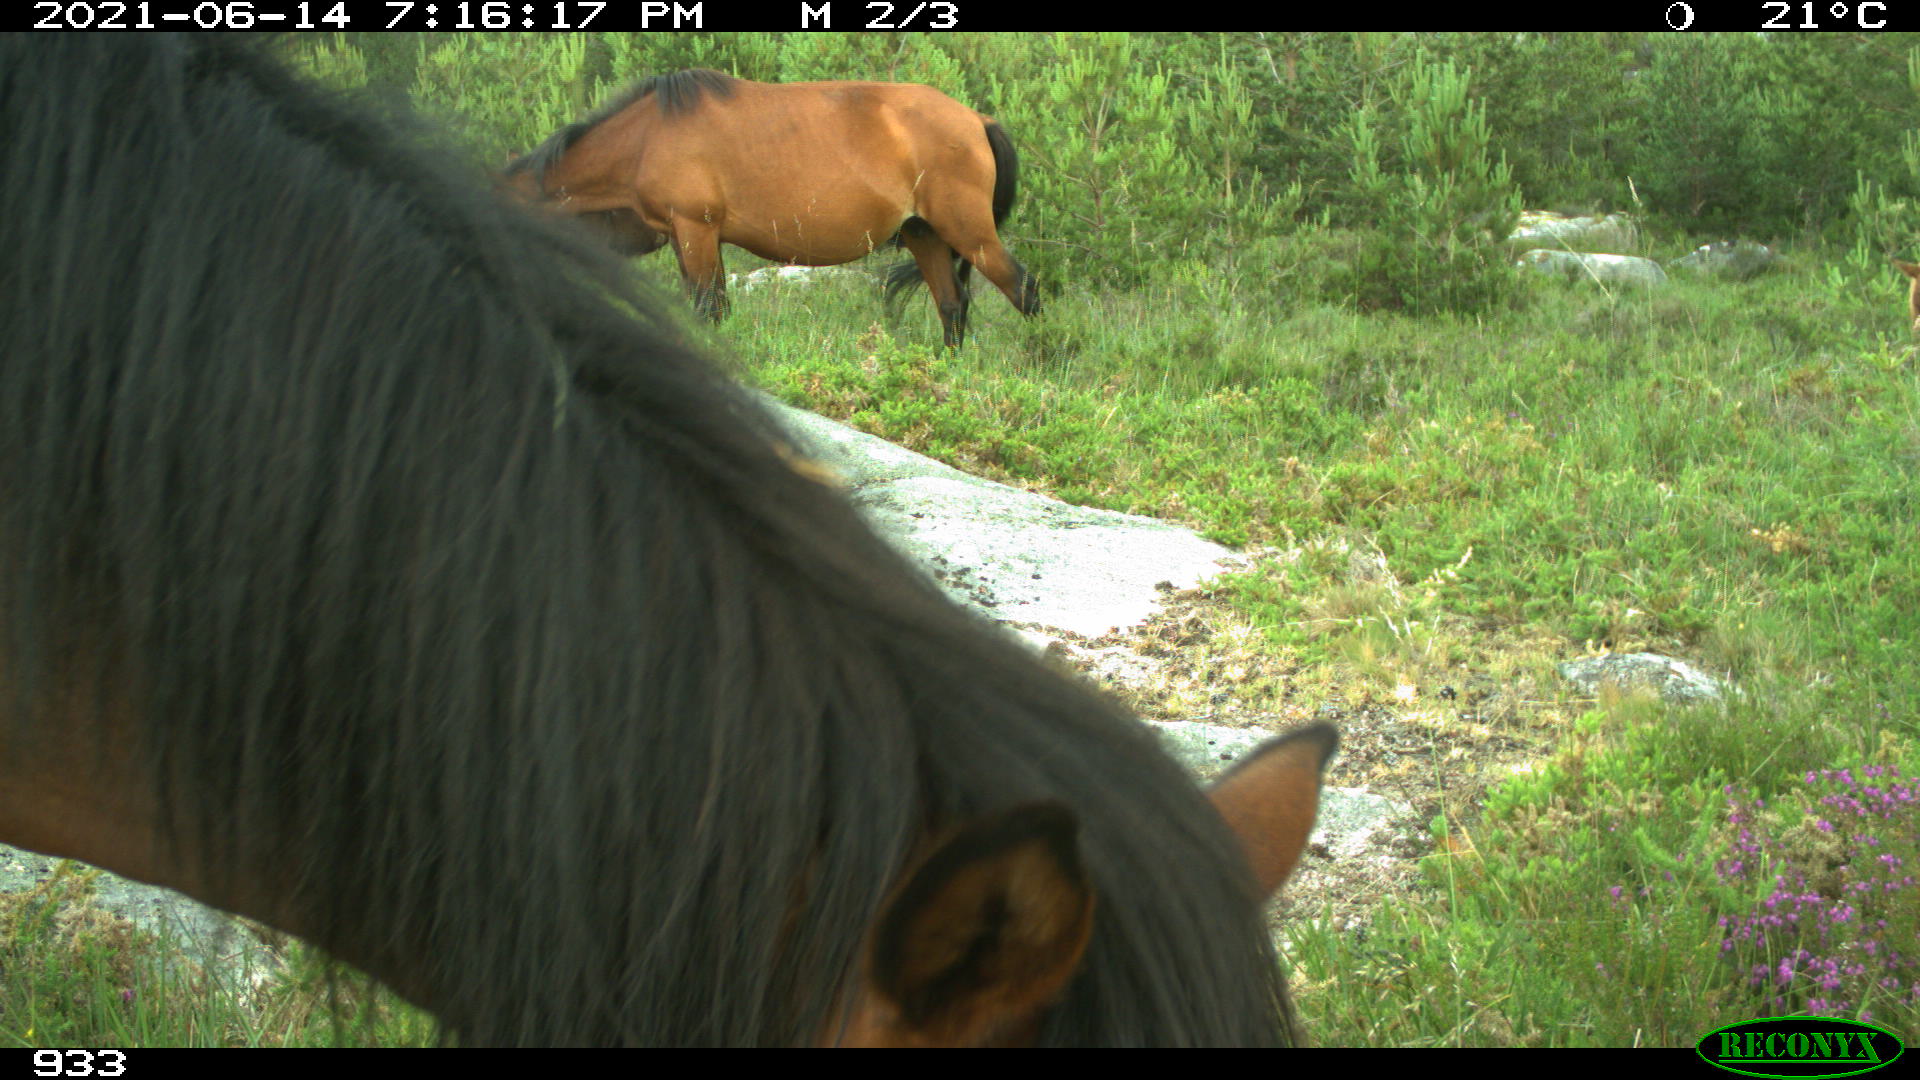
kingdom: Animalia
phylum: Chordata
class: Mammalia
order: Perissodactyla
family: Equidae
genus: Equus
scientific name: Equus caballus
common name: Horse
